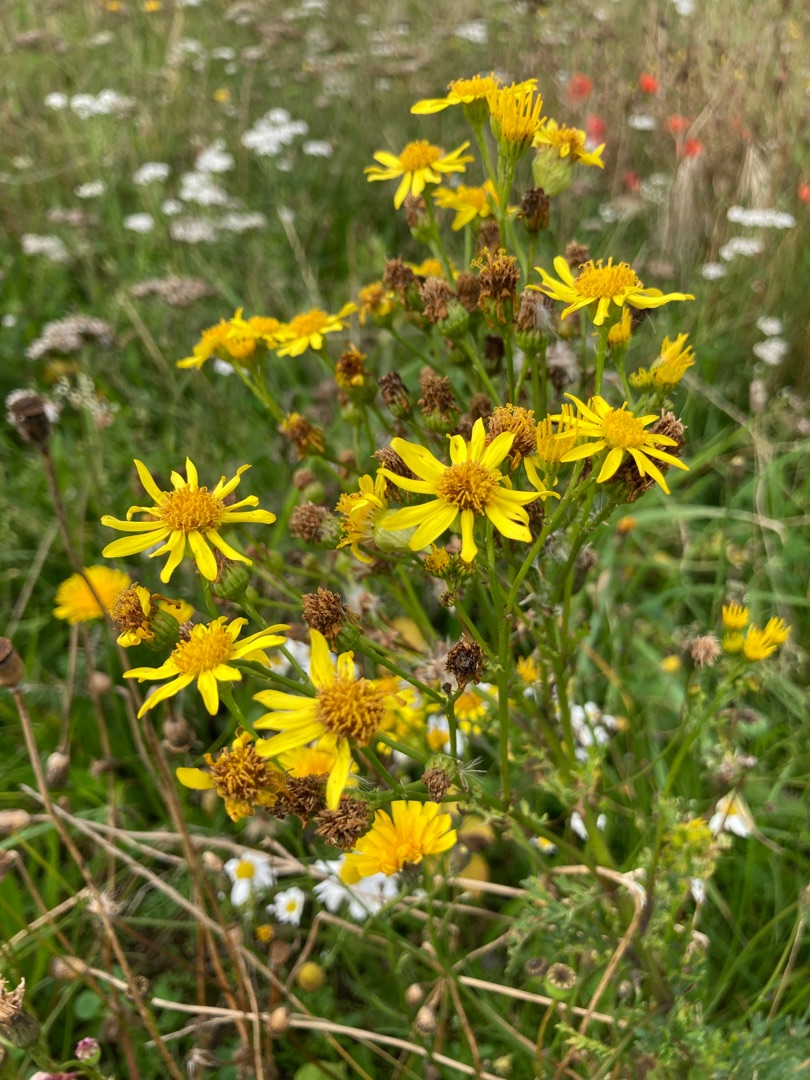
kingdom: Plantae
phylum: Tracheophyta
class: Magnoliopsida
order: Asterales
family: Asteraceae
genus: Jacobaea
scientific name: Jacobaea vulgaris
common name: Eng-brandbæger
